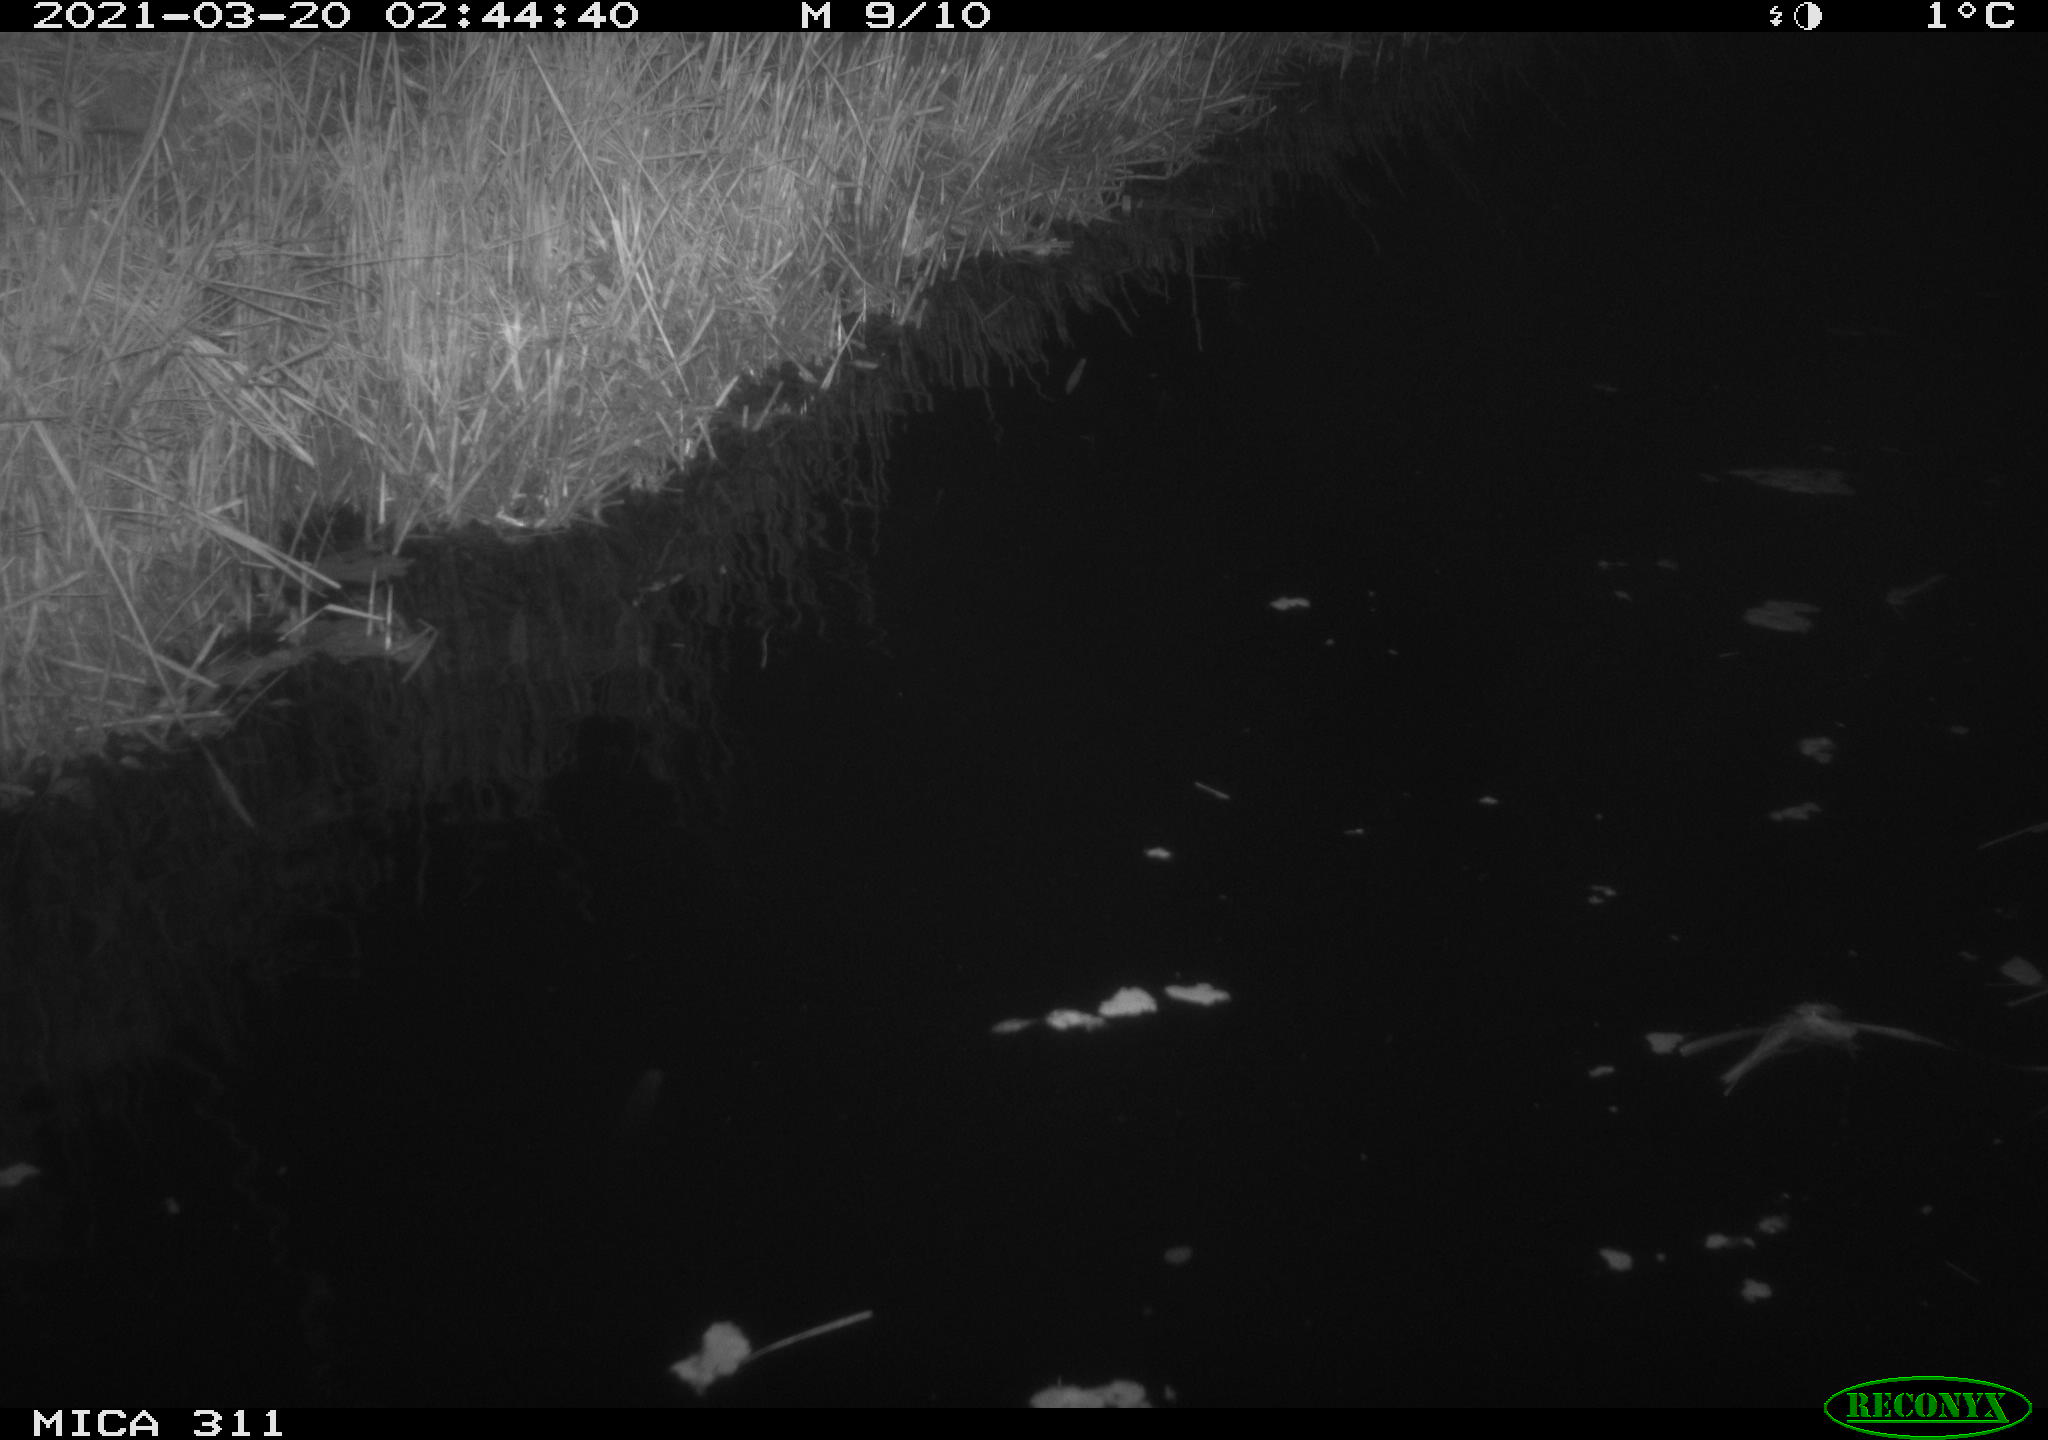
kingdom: Animalia
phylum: Chordata
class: Mammalia
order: Rodentia
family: Cricetidae
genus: Ondatra
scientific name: Ondatra zibethicus
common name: Muskrat
